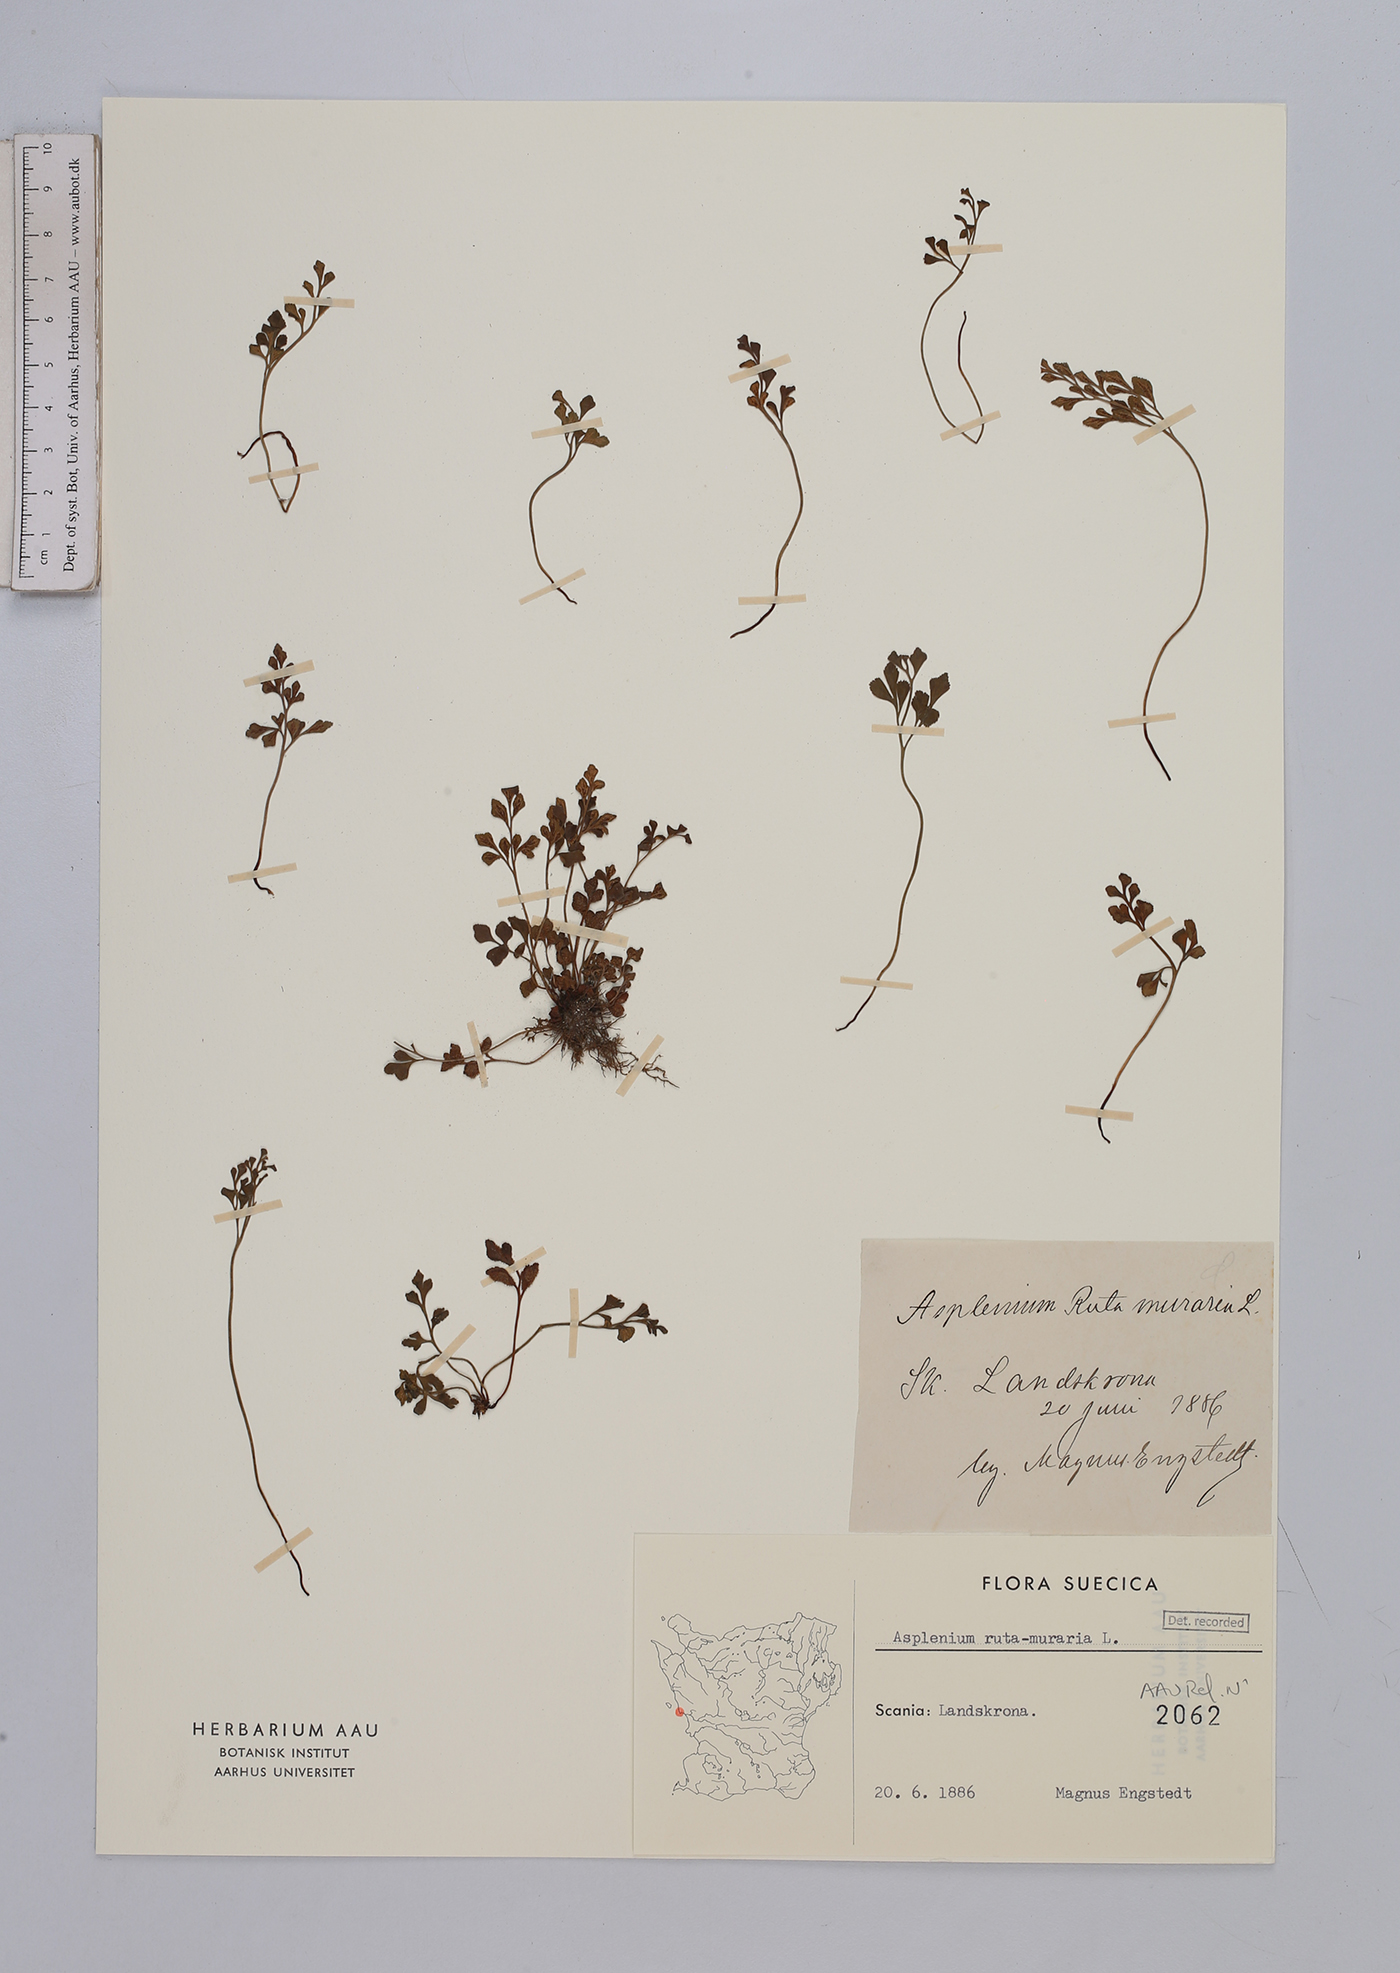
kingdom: Plantae
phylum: Tracheophyta
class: Polypodiopsida
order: Polypodiales
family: Aspleniaceae
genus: Asplenium
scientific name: Asplenium ruta-muraria
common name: Wall-rue
